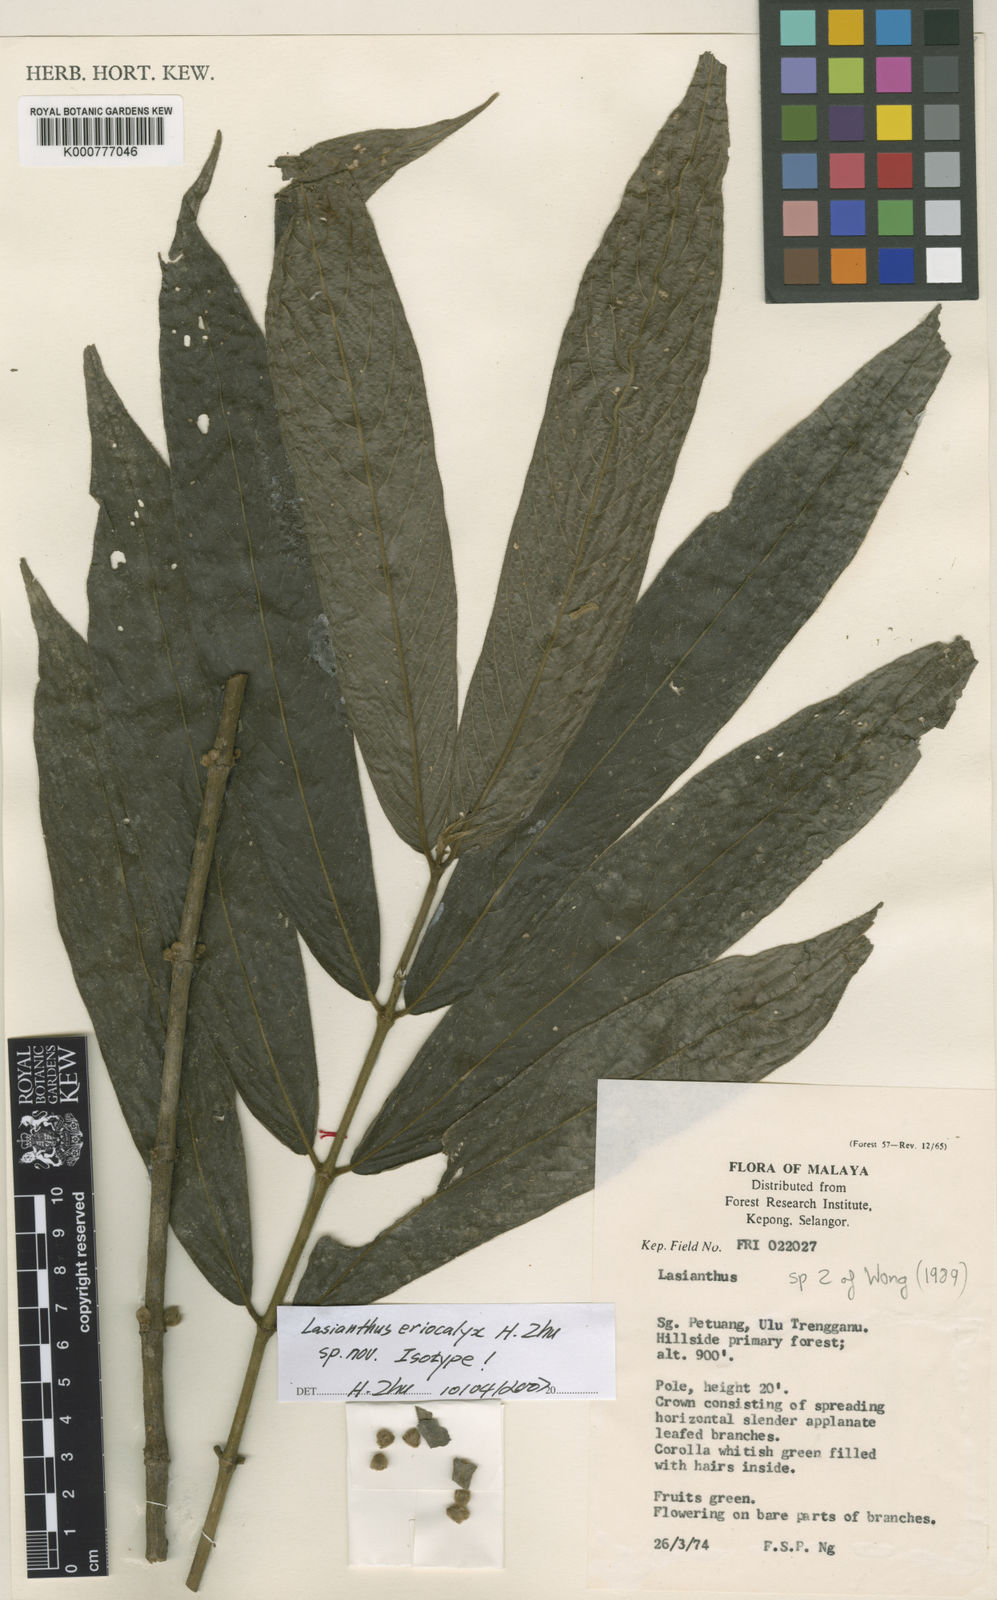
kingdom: Plantae
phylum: Tracheophyta
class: Magnoliopsida
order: Gentianales
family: Rubiaceae
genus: Lasianthus
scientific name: Lasianthus eriocalyx
